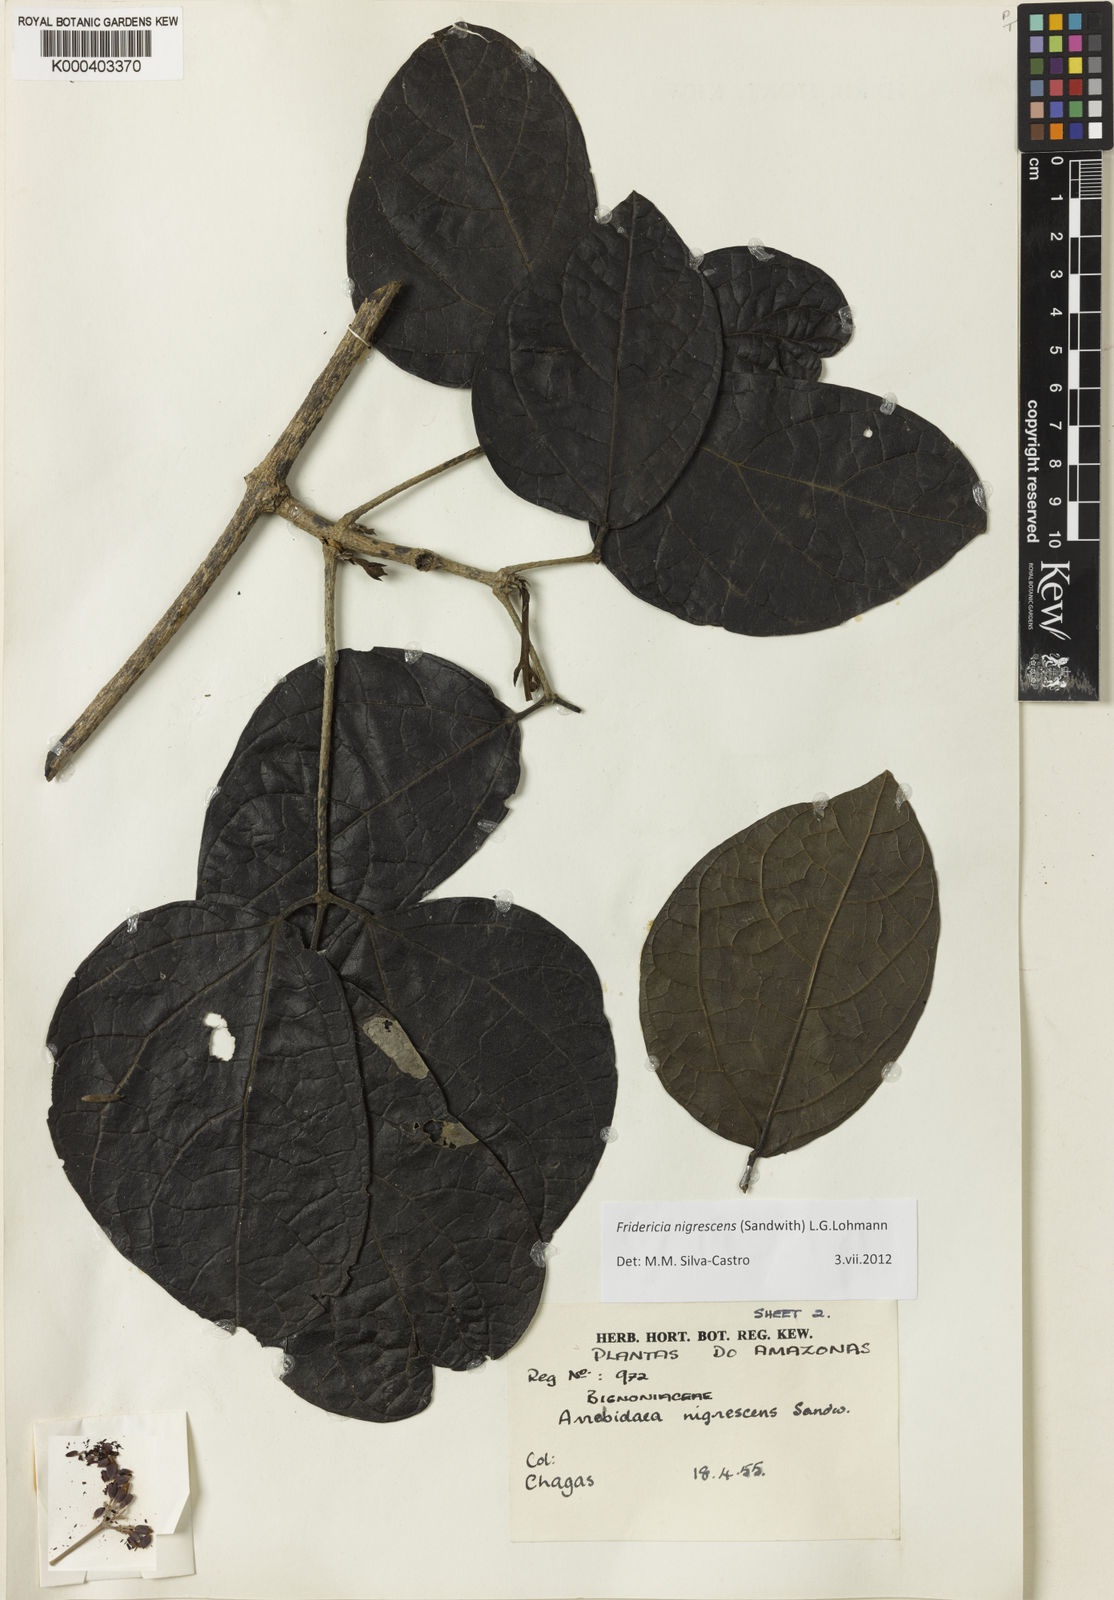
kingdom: Plantae
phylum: Tracheophyta
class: Magnoliopsida
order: Lamiales
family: Bignoniaceae
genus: Fridericia
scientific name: Fridericia nigrescens
